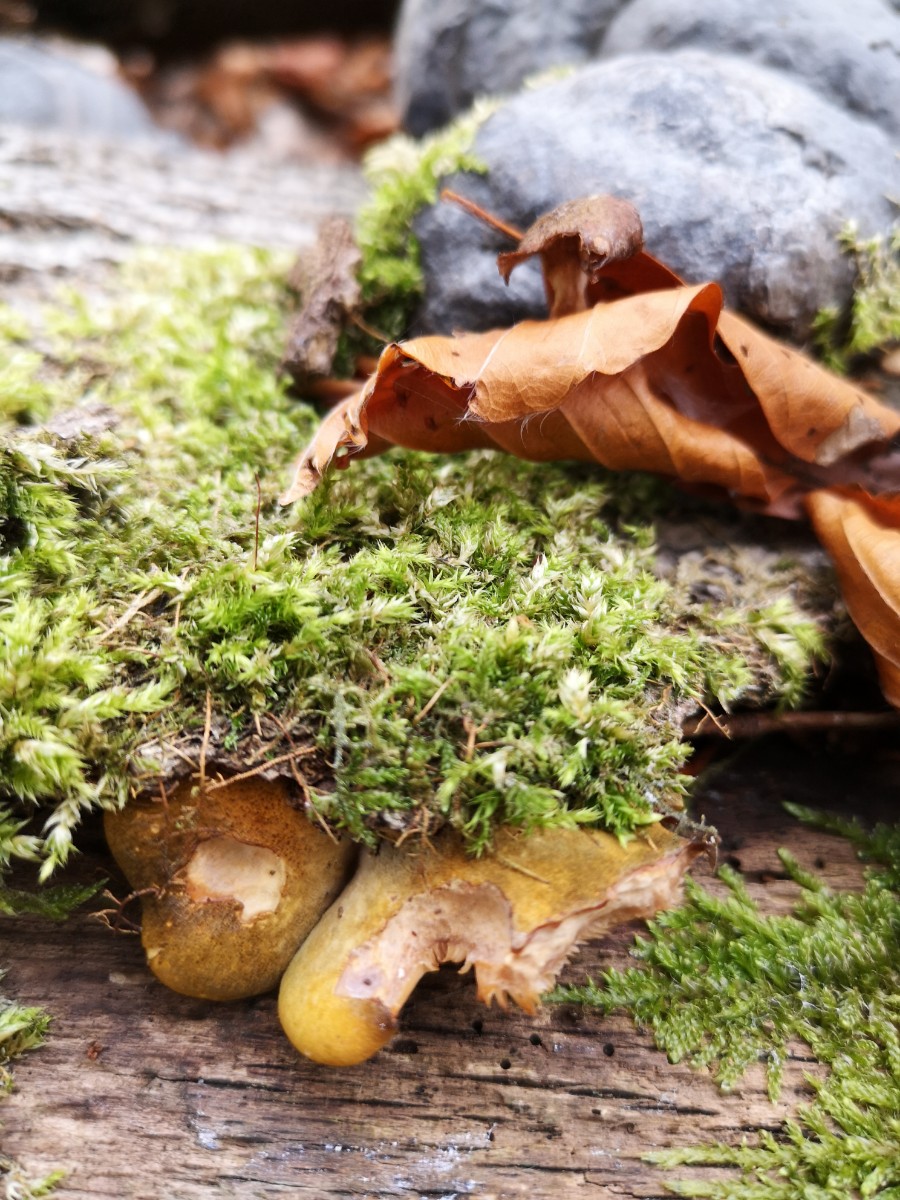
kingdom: Fungi
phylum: Basidiomycota
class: Agaricomycetes
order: Agaricales
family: Sarcomyxaceae
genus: Sarcomyxa
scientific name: Sarcomyxa serotina
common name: gummihat
